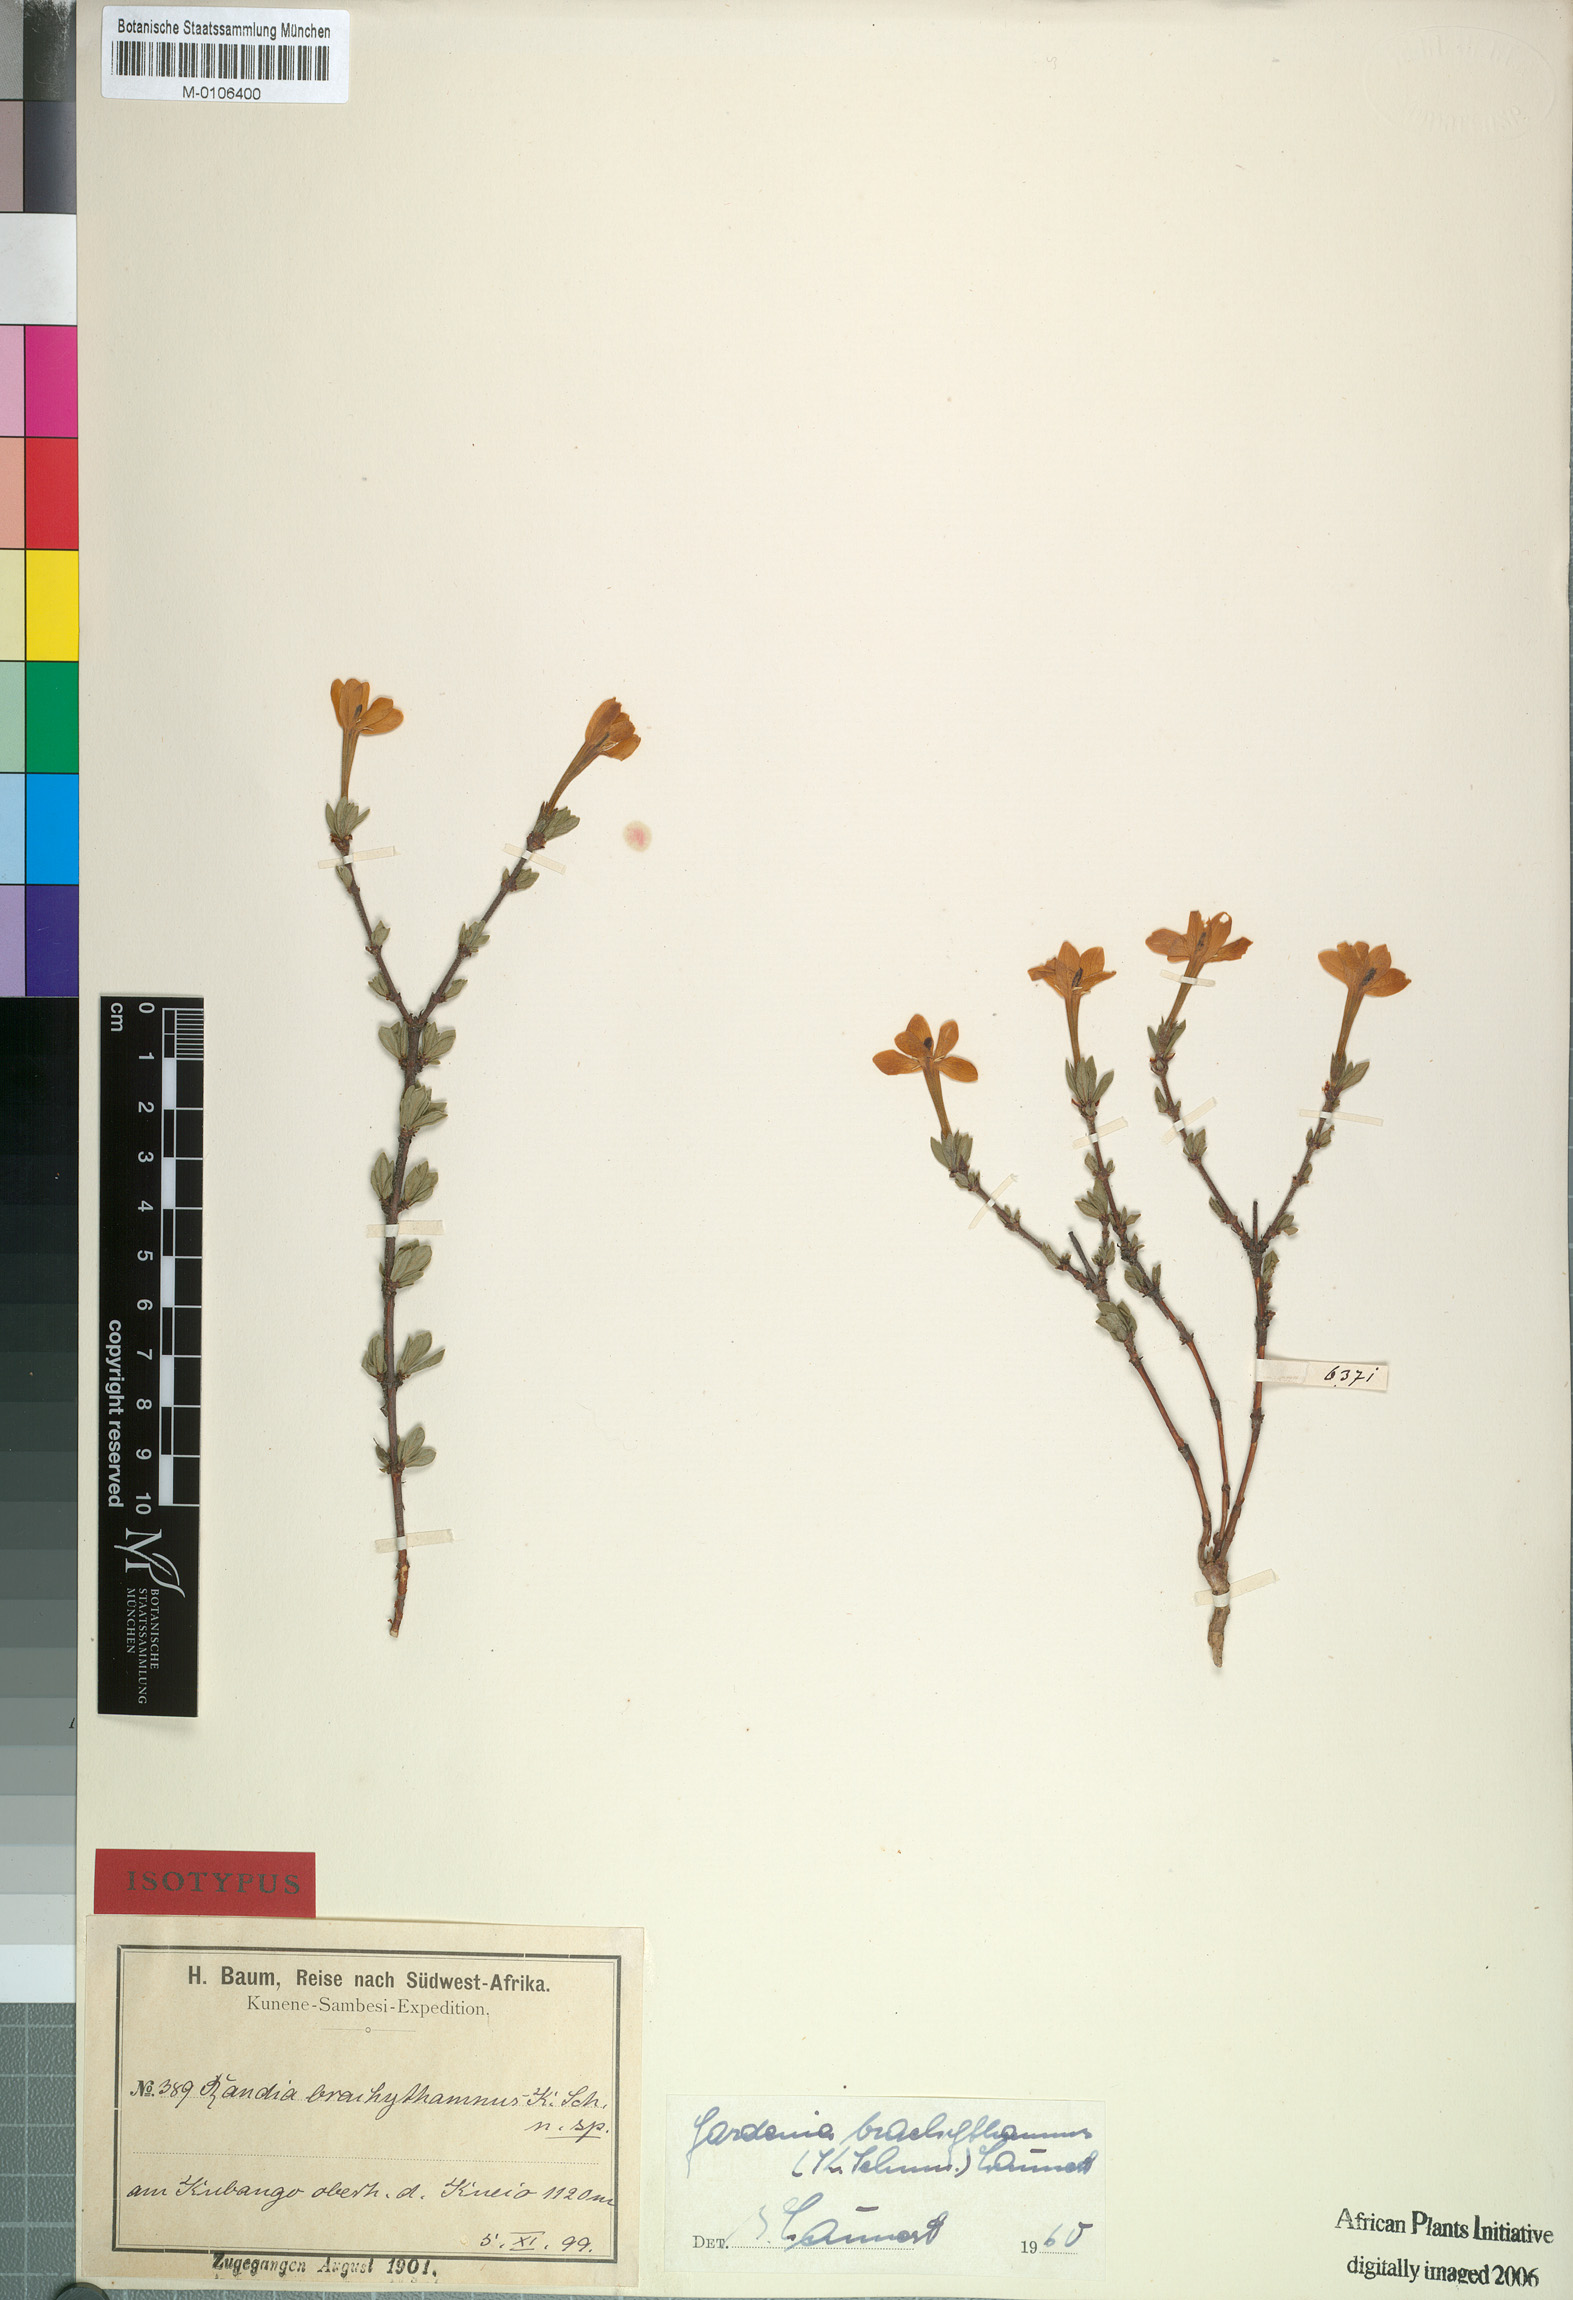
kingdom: Plantae
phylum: Tracheophyta
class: Magnoliopsida
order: Gentianales
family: Rubiaceae
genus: Gardenia
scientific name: Gardenia brachythamnus
